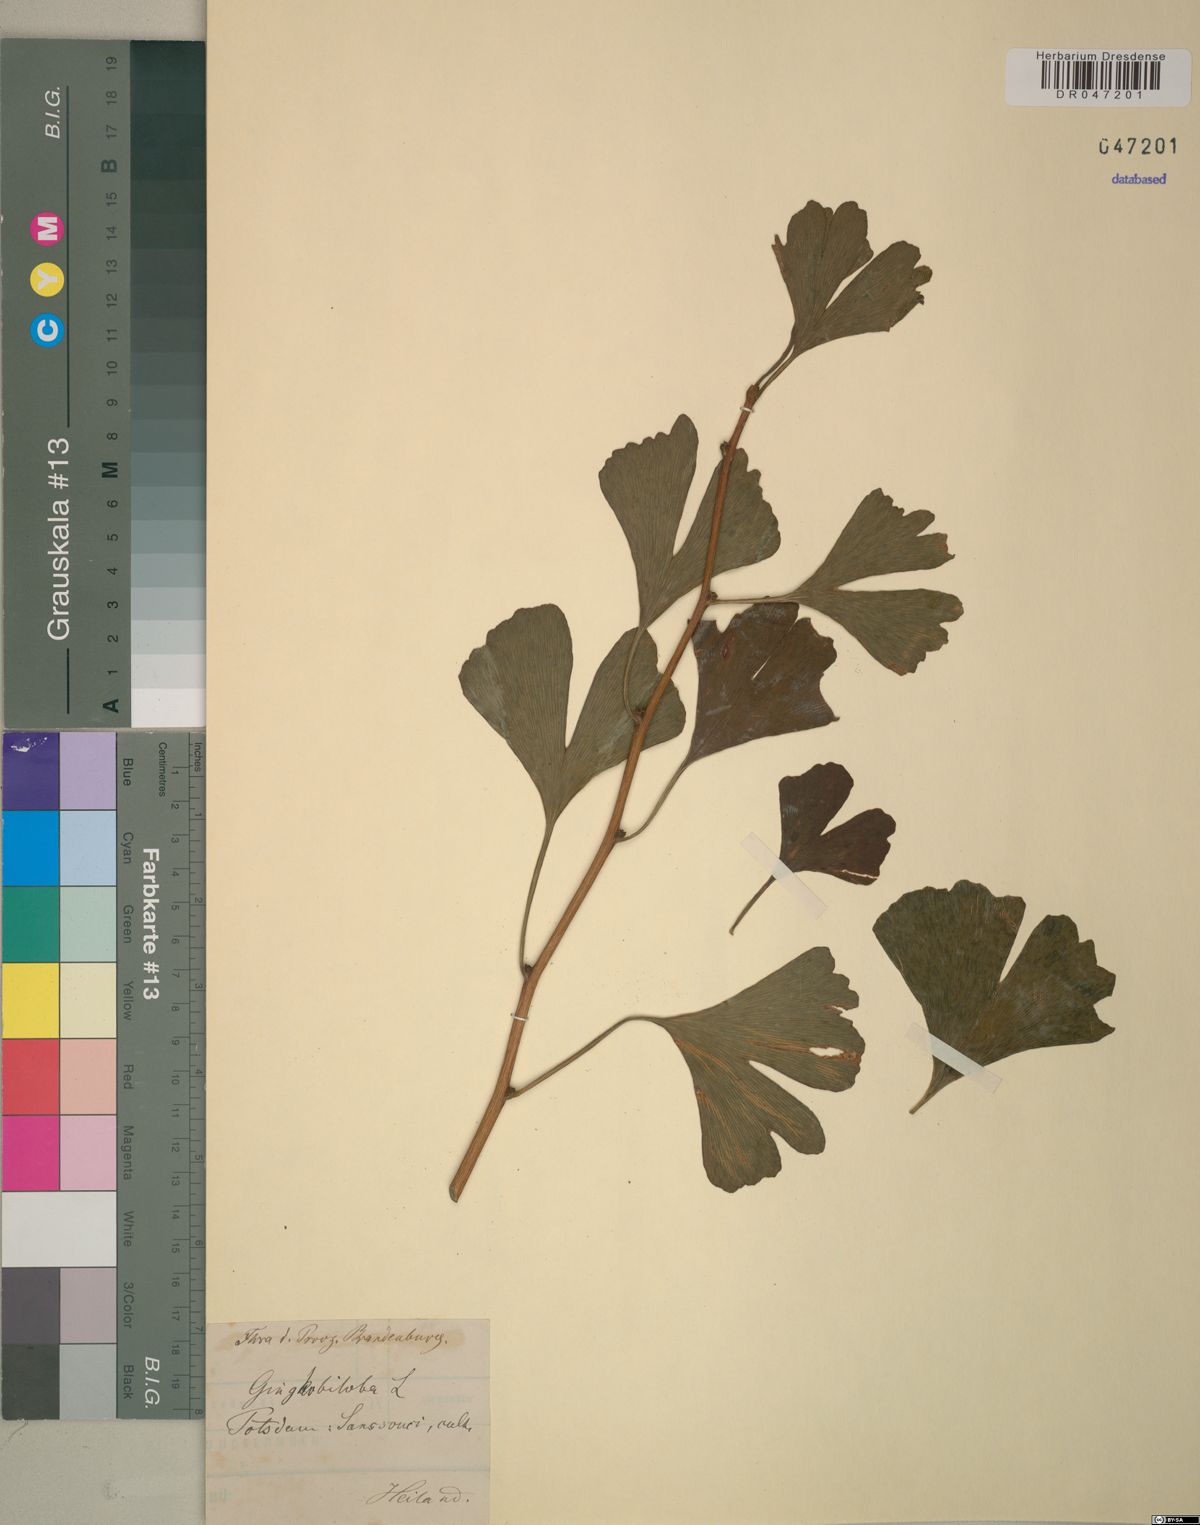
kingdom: Plantae
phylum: Tracheophyta
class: Ginkgoopsida
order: Ginkgoales
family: Ginkgoaceae
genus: Ginkgo
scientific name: Ginkgo biloba
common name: Ginkgo
